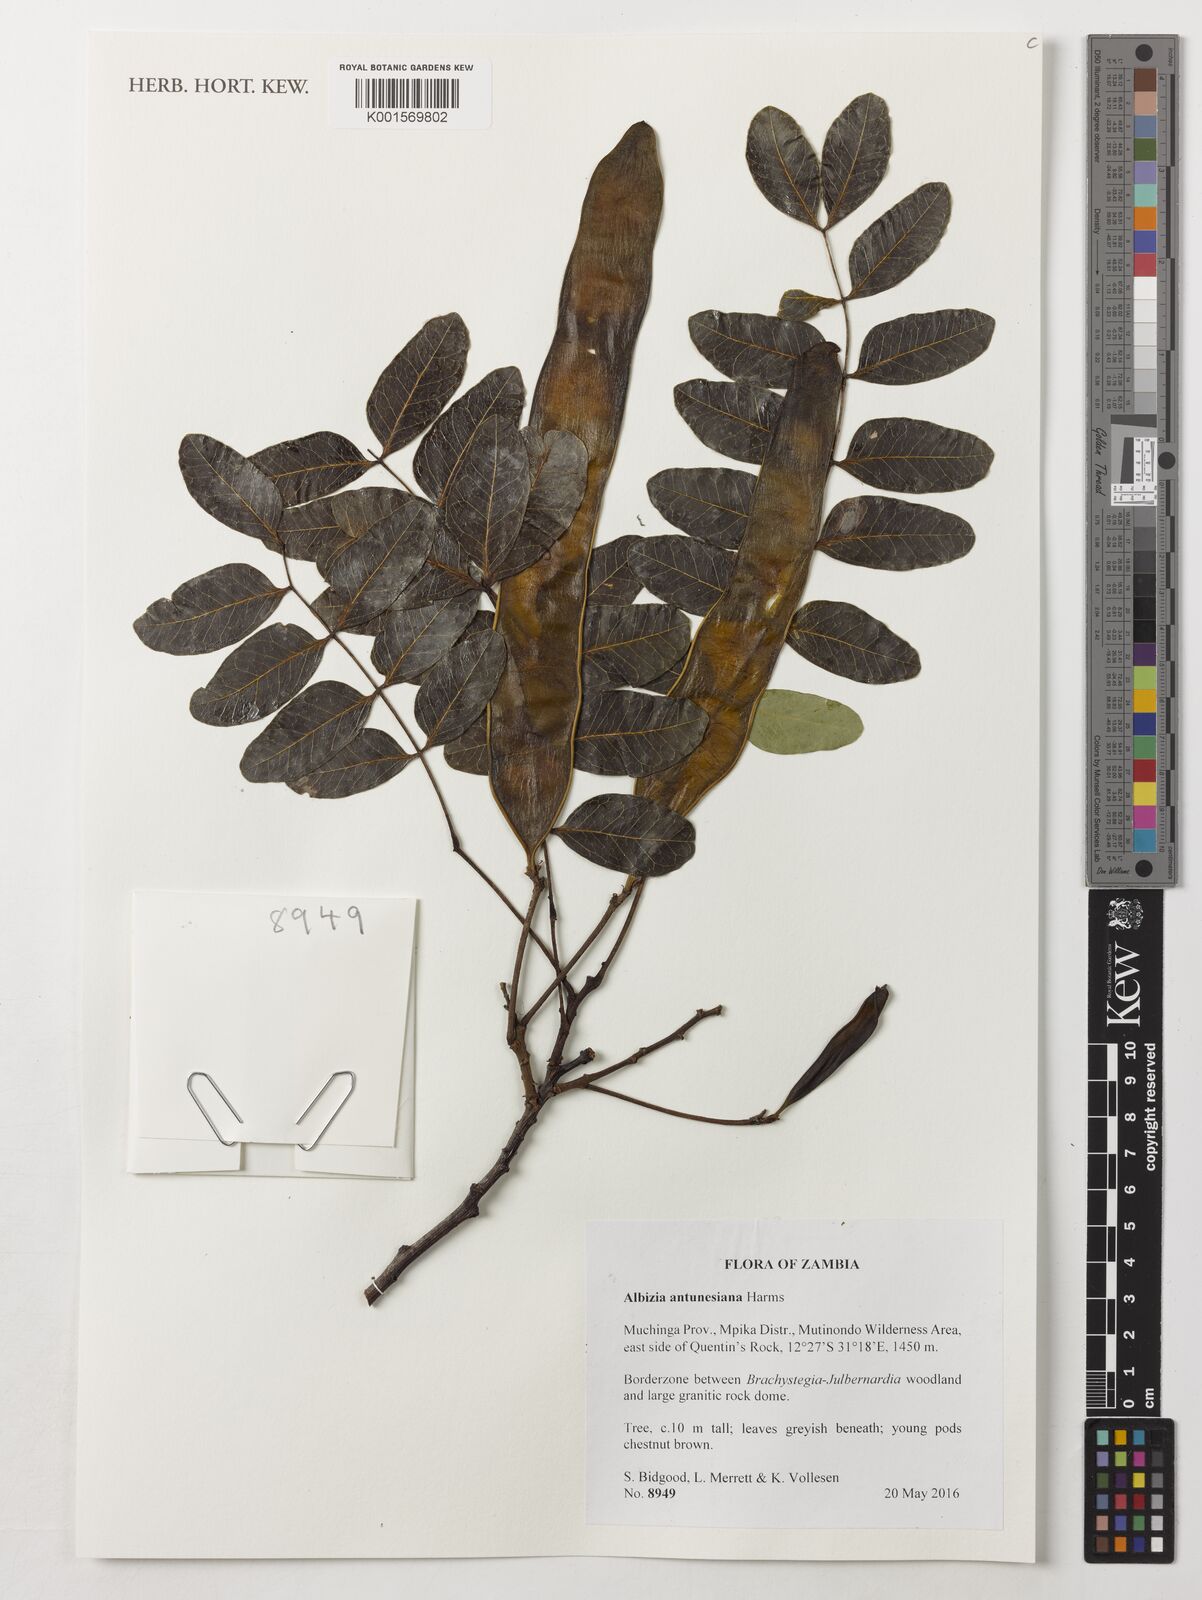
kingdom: Plantae
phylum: Tracheophyta
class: Magnoliopsida
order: Fabales
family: Fabaceae
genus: Albizia
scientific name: Albizia antunesiana
